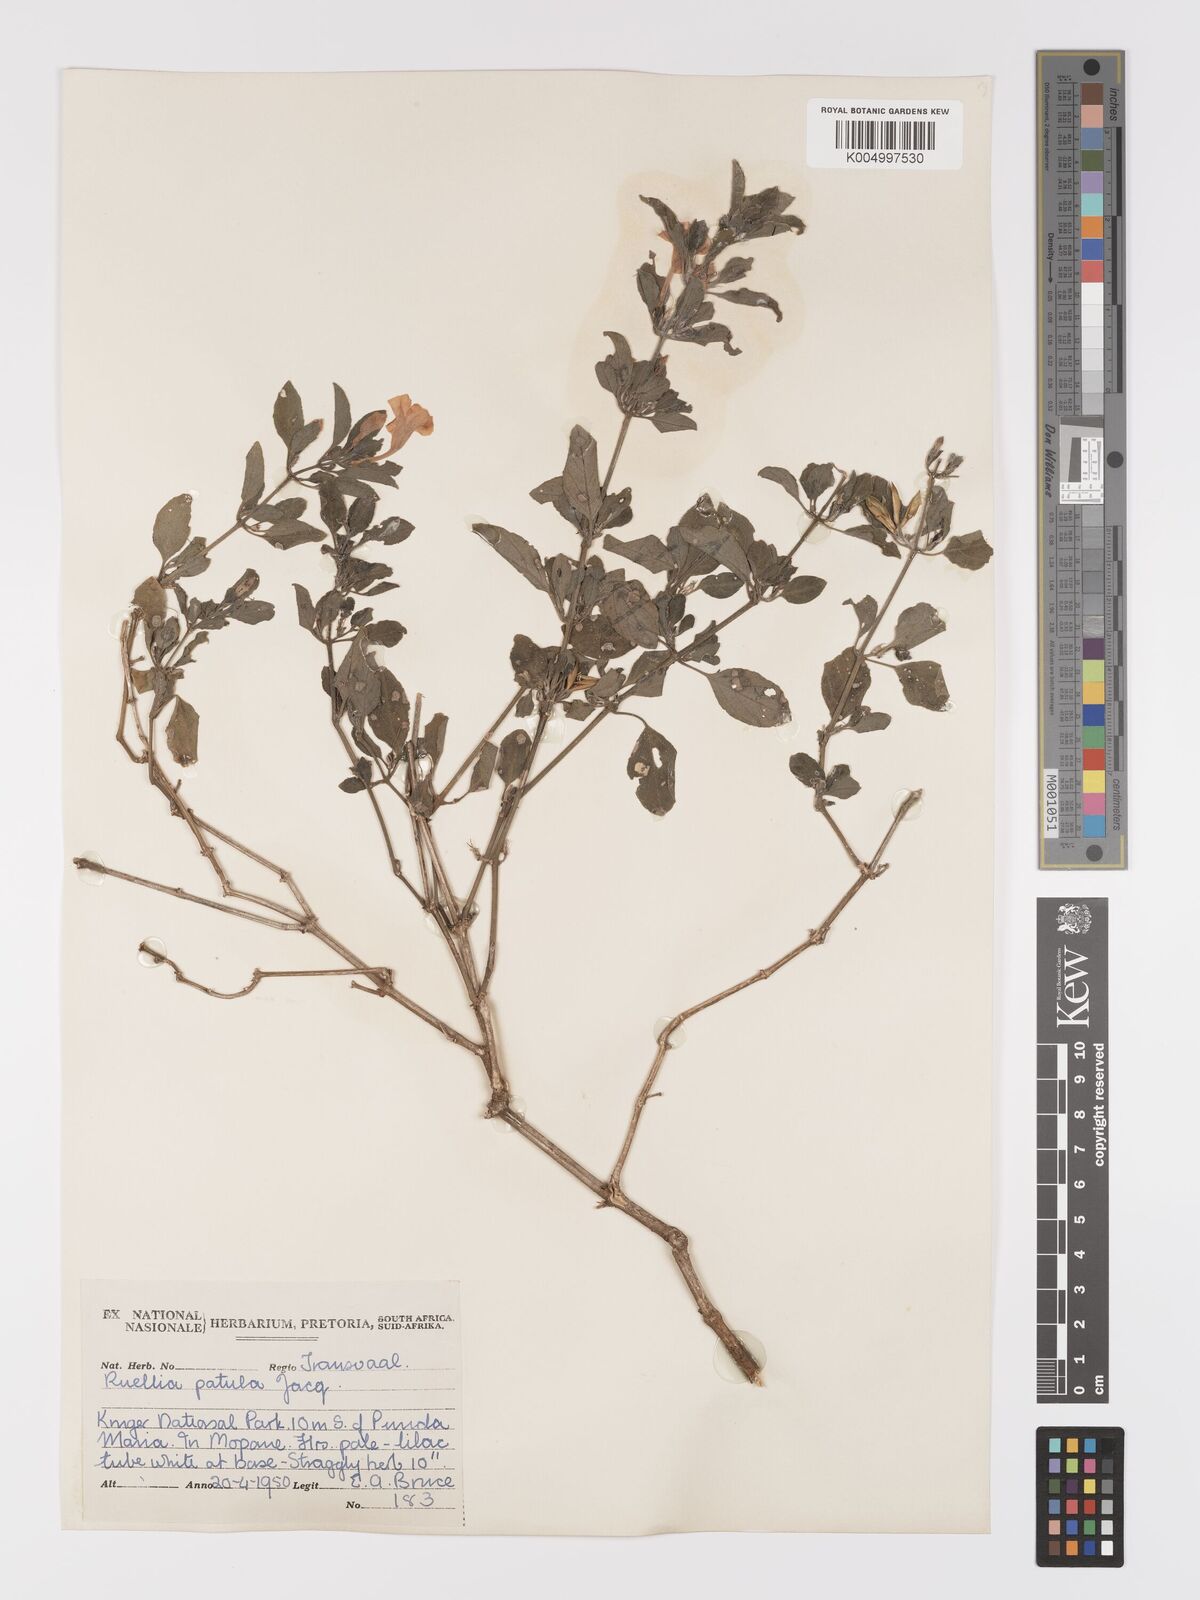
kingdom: Plantae
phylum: Tracheophyta
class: Magnoliopsida
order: Lamiales
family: Acanthaceae
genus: Ruellia
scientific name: Ruellia patula
